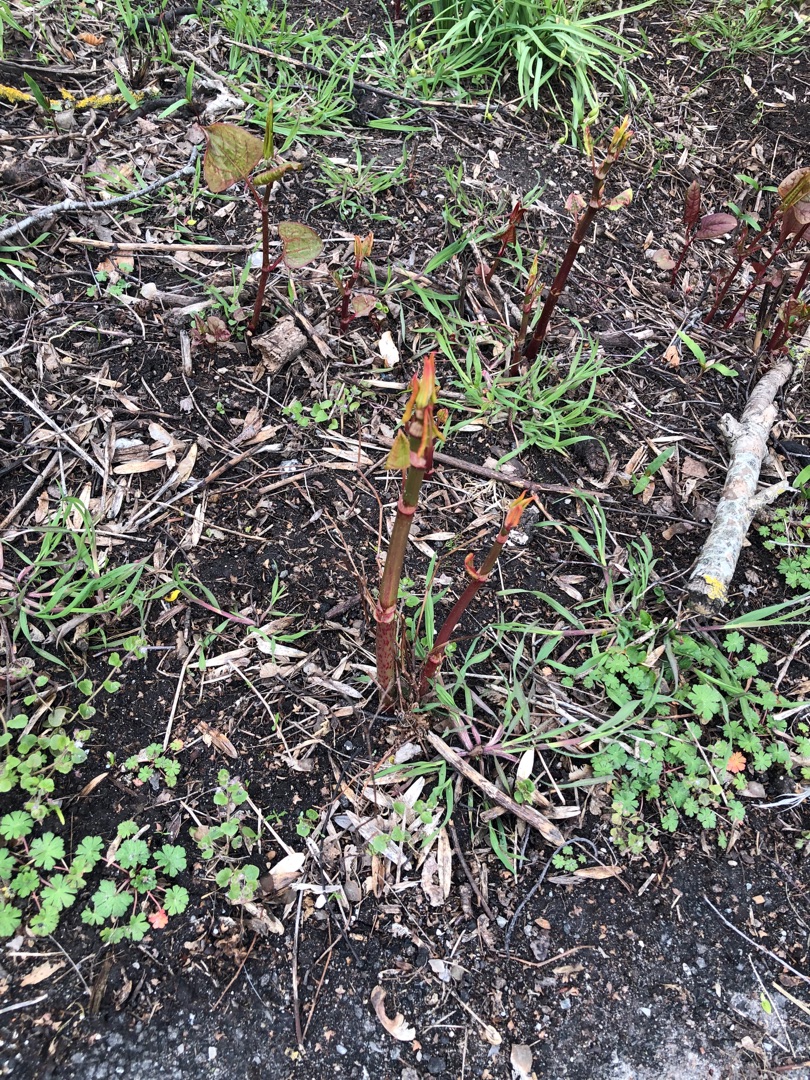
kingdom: Plantae
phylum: Tracheophyta
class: Magnoliopsida
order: Caryophyllales
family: Polygonaceae
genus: Reynoutria
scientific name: Reynoutria japonica
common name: Japan-pileurt
